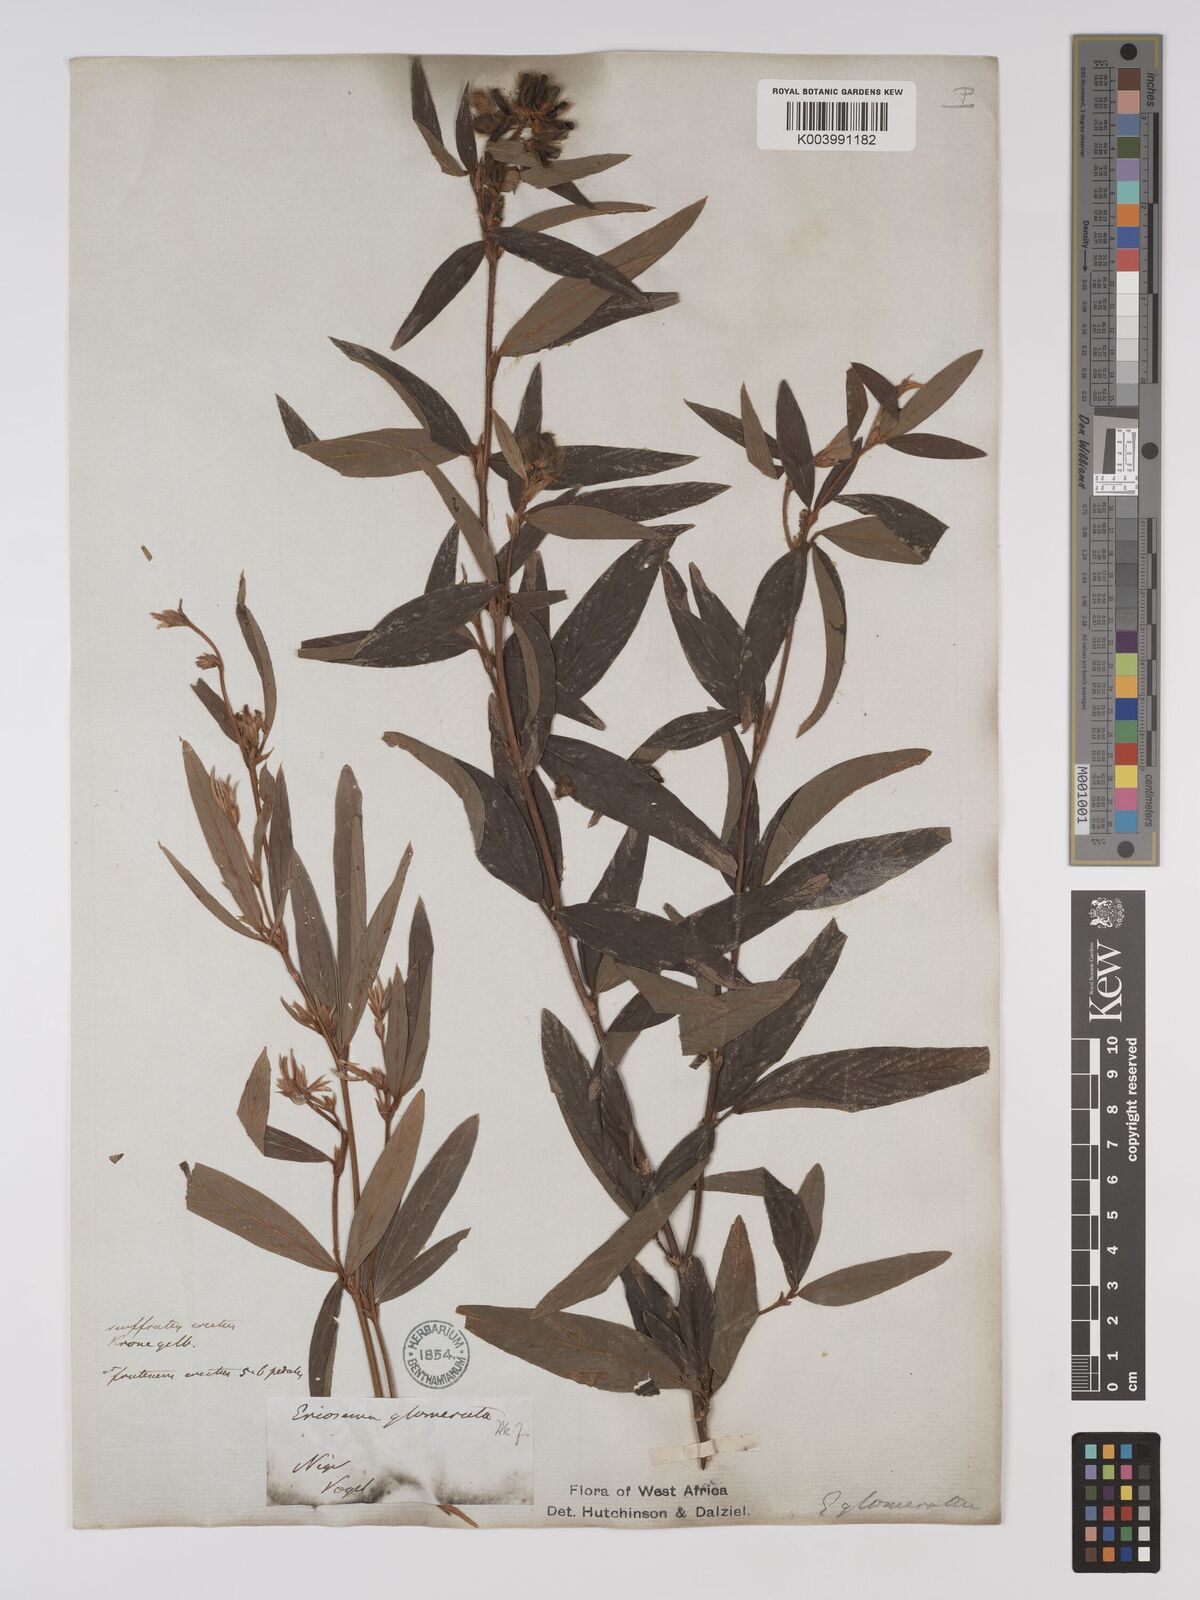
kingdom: Plantae
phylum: Tracheophyta
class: Magnoliopsida
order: Fabales
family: Fabaceae
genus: Eriosema
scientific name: Eriosema glomeratum
